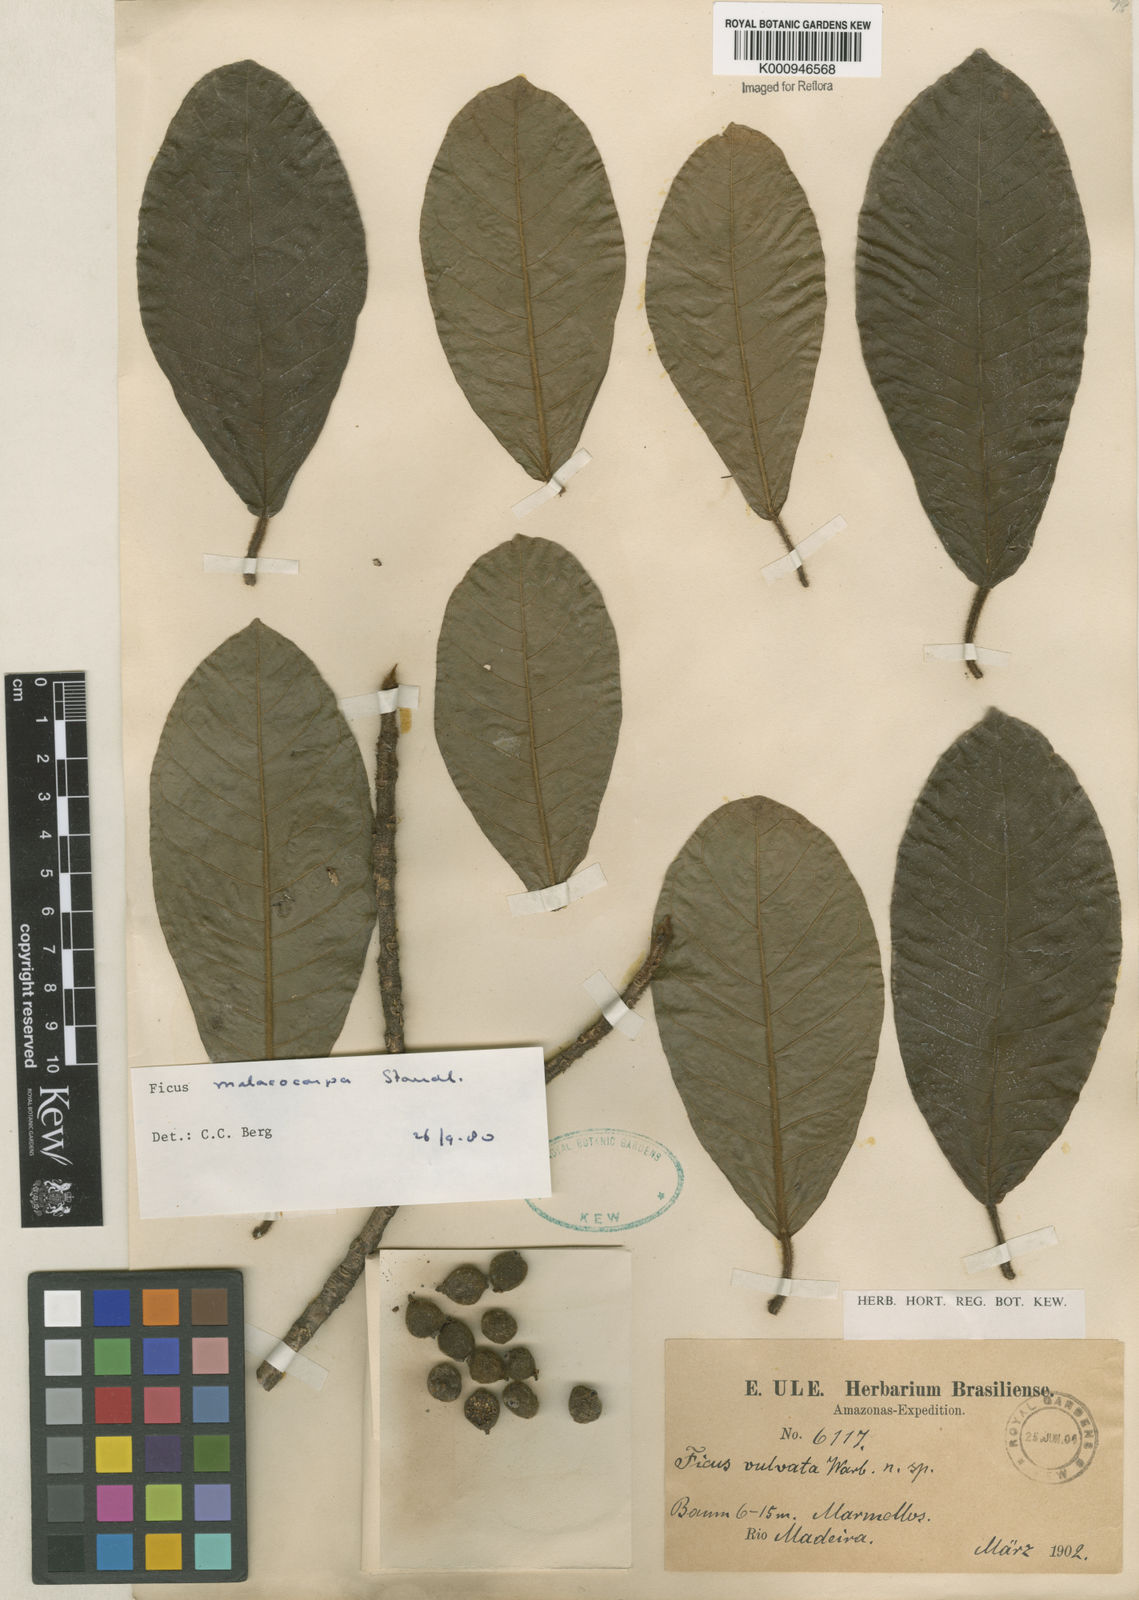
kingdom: Plantae
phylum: Tracheophyta
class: Magnoliopsida
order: Rosales
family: Moraceae
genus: Ficus
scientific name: Ficus popenoei
